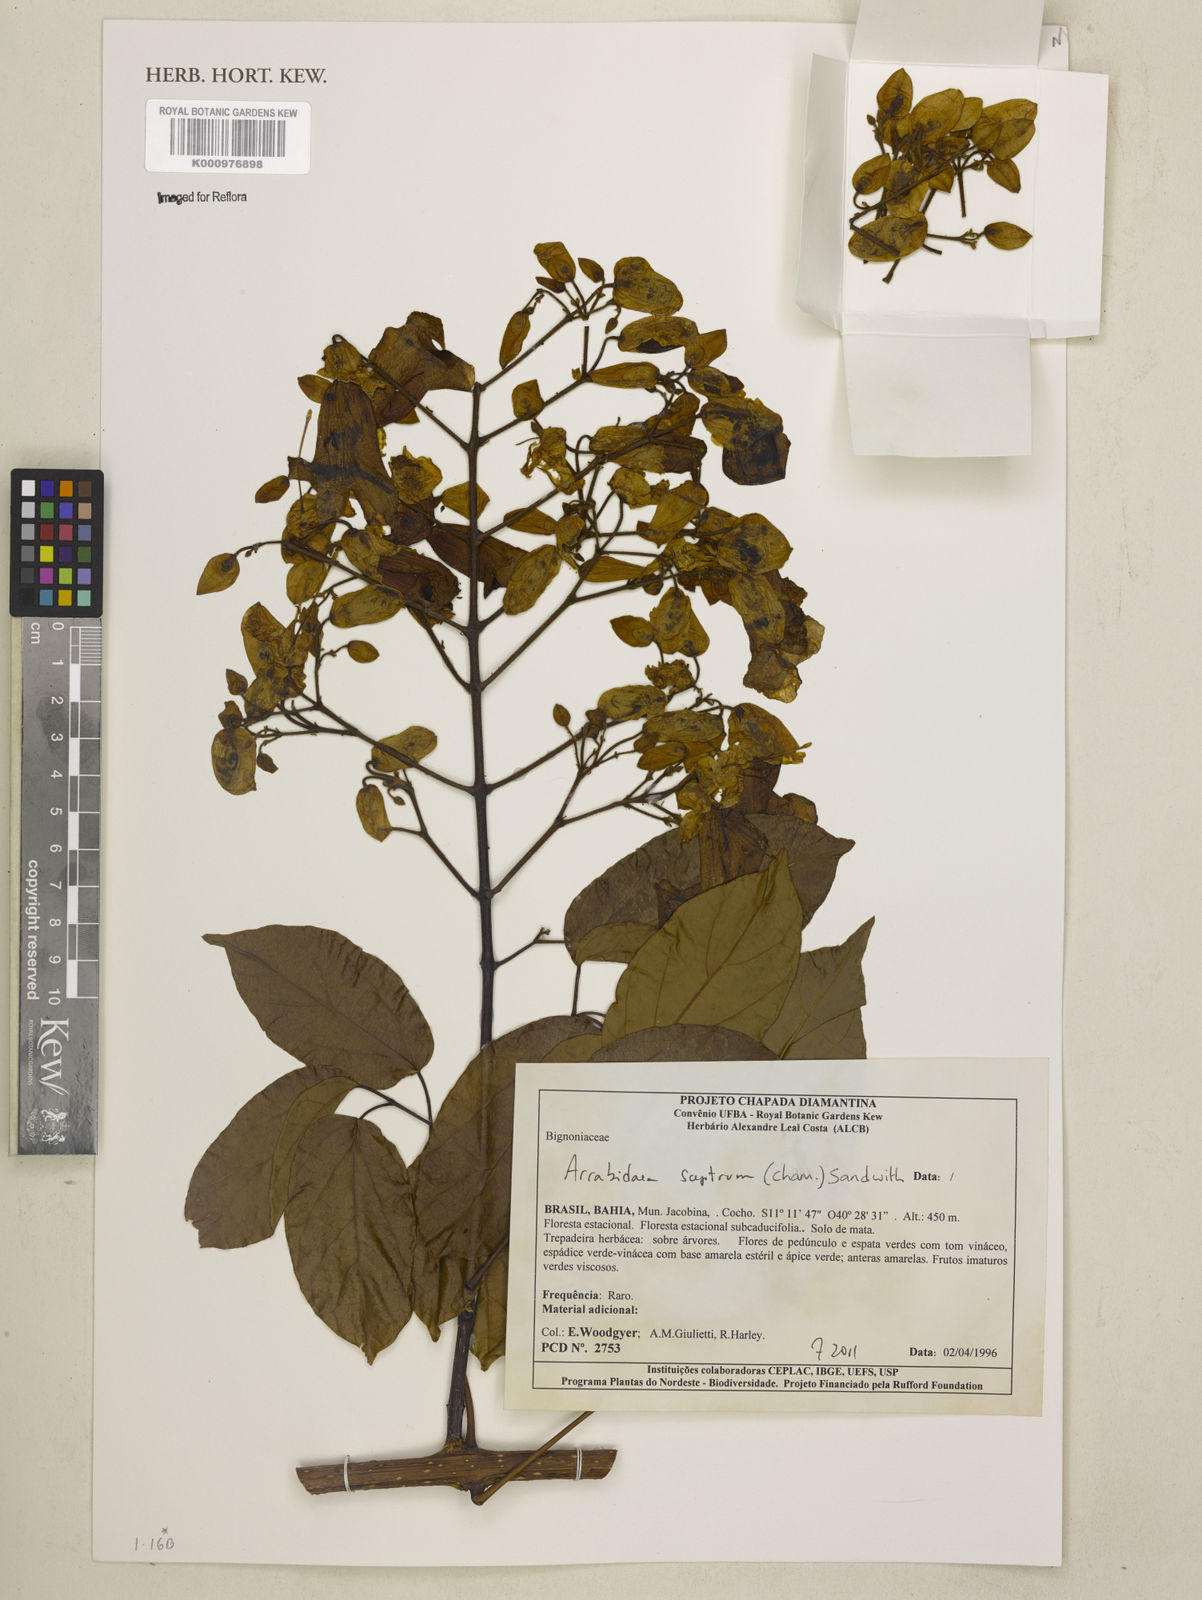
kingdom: Plantae
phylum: Tracheophyta
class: Magnoliopsida
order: Lamiales
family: Bignoniaceae
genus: Cuspidaria
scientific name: Cuspidaria sceptrum
